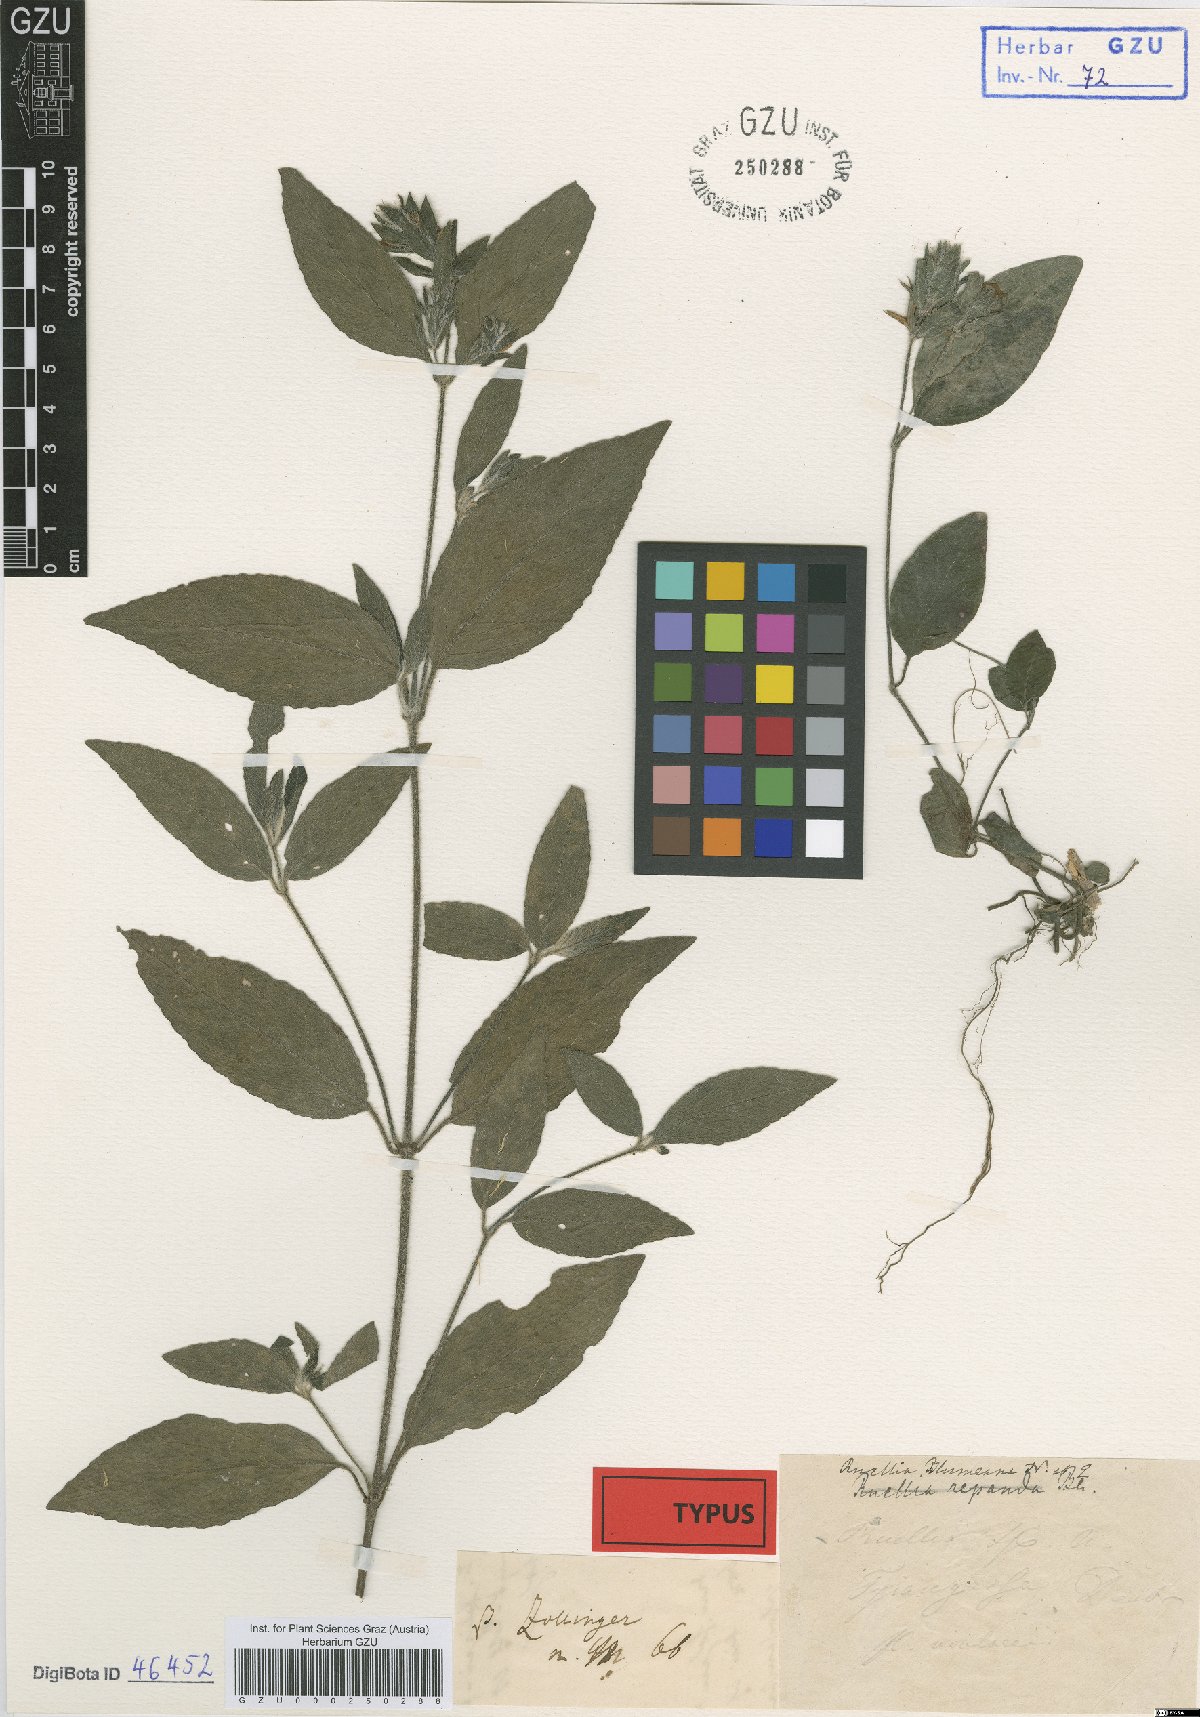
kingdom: Plantae
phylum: Tracheophyta
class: Magnoliopsida
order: Lamiales
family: Acanthaceae
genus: Strobilanthes
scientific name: Strobilanthes blumeana
